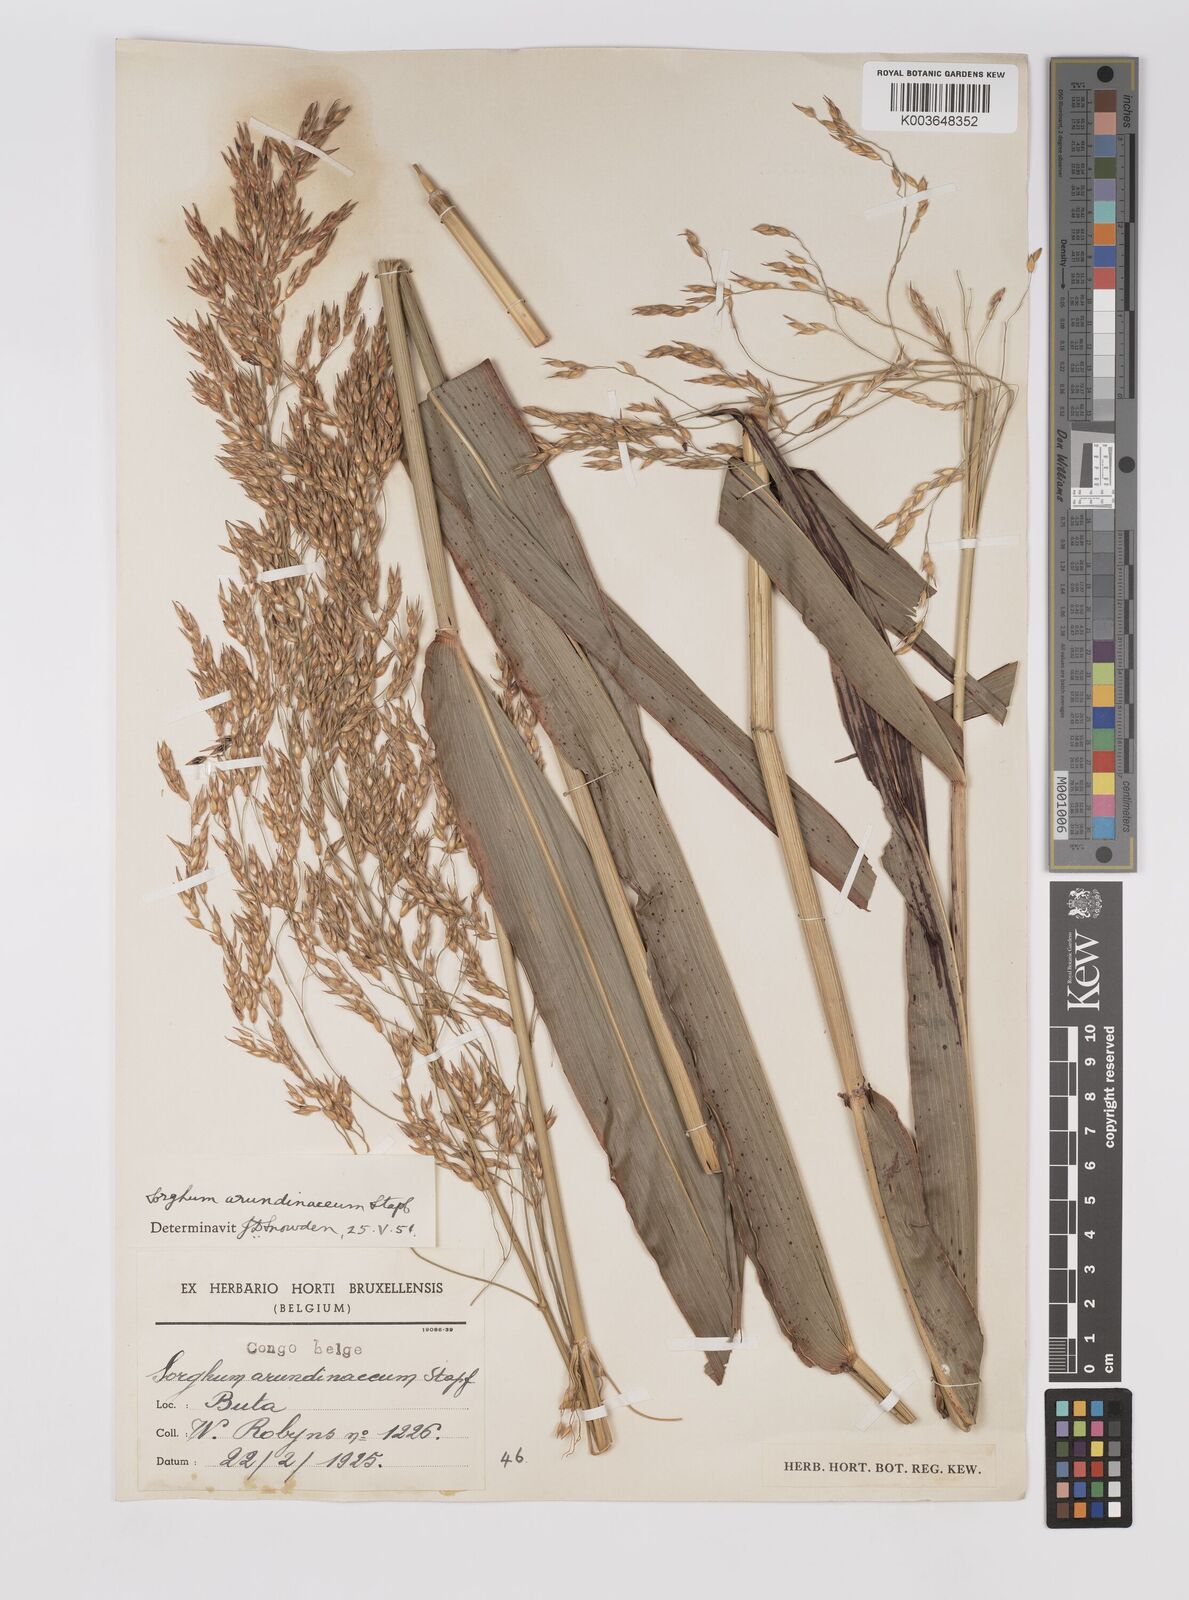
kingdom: Plantae
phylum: Tracheophyta
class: Liliopsida
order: Poales
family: Poaceae
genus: Sorghum
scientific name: Sorghum arundinaceum
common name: Sorghum
